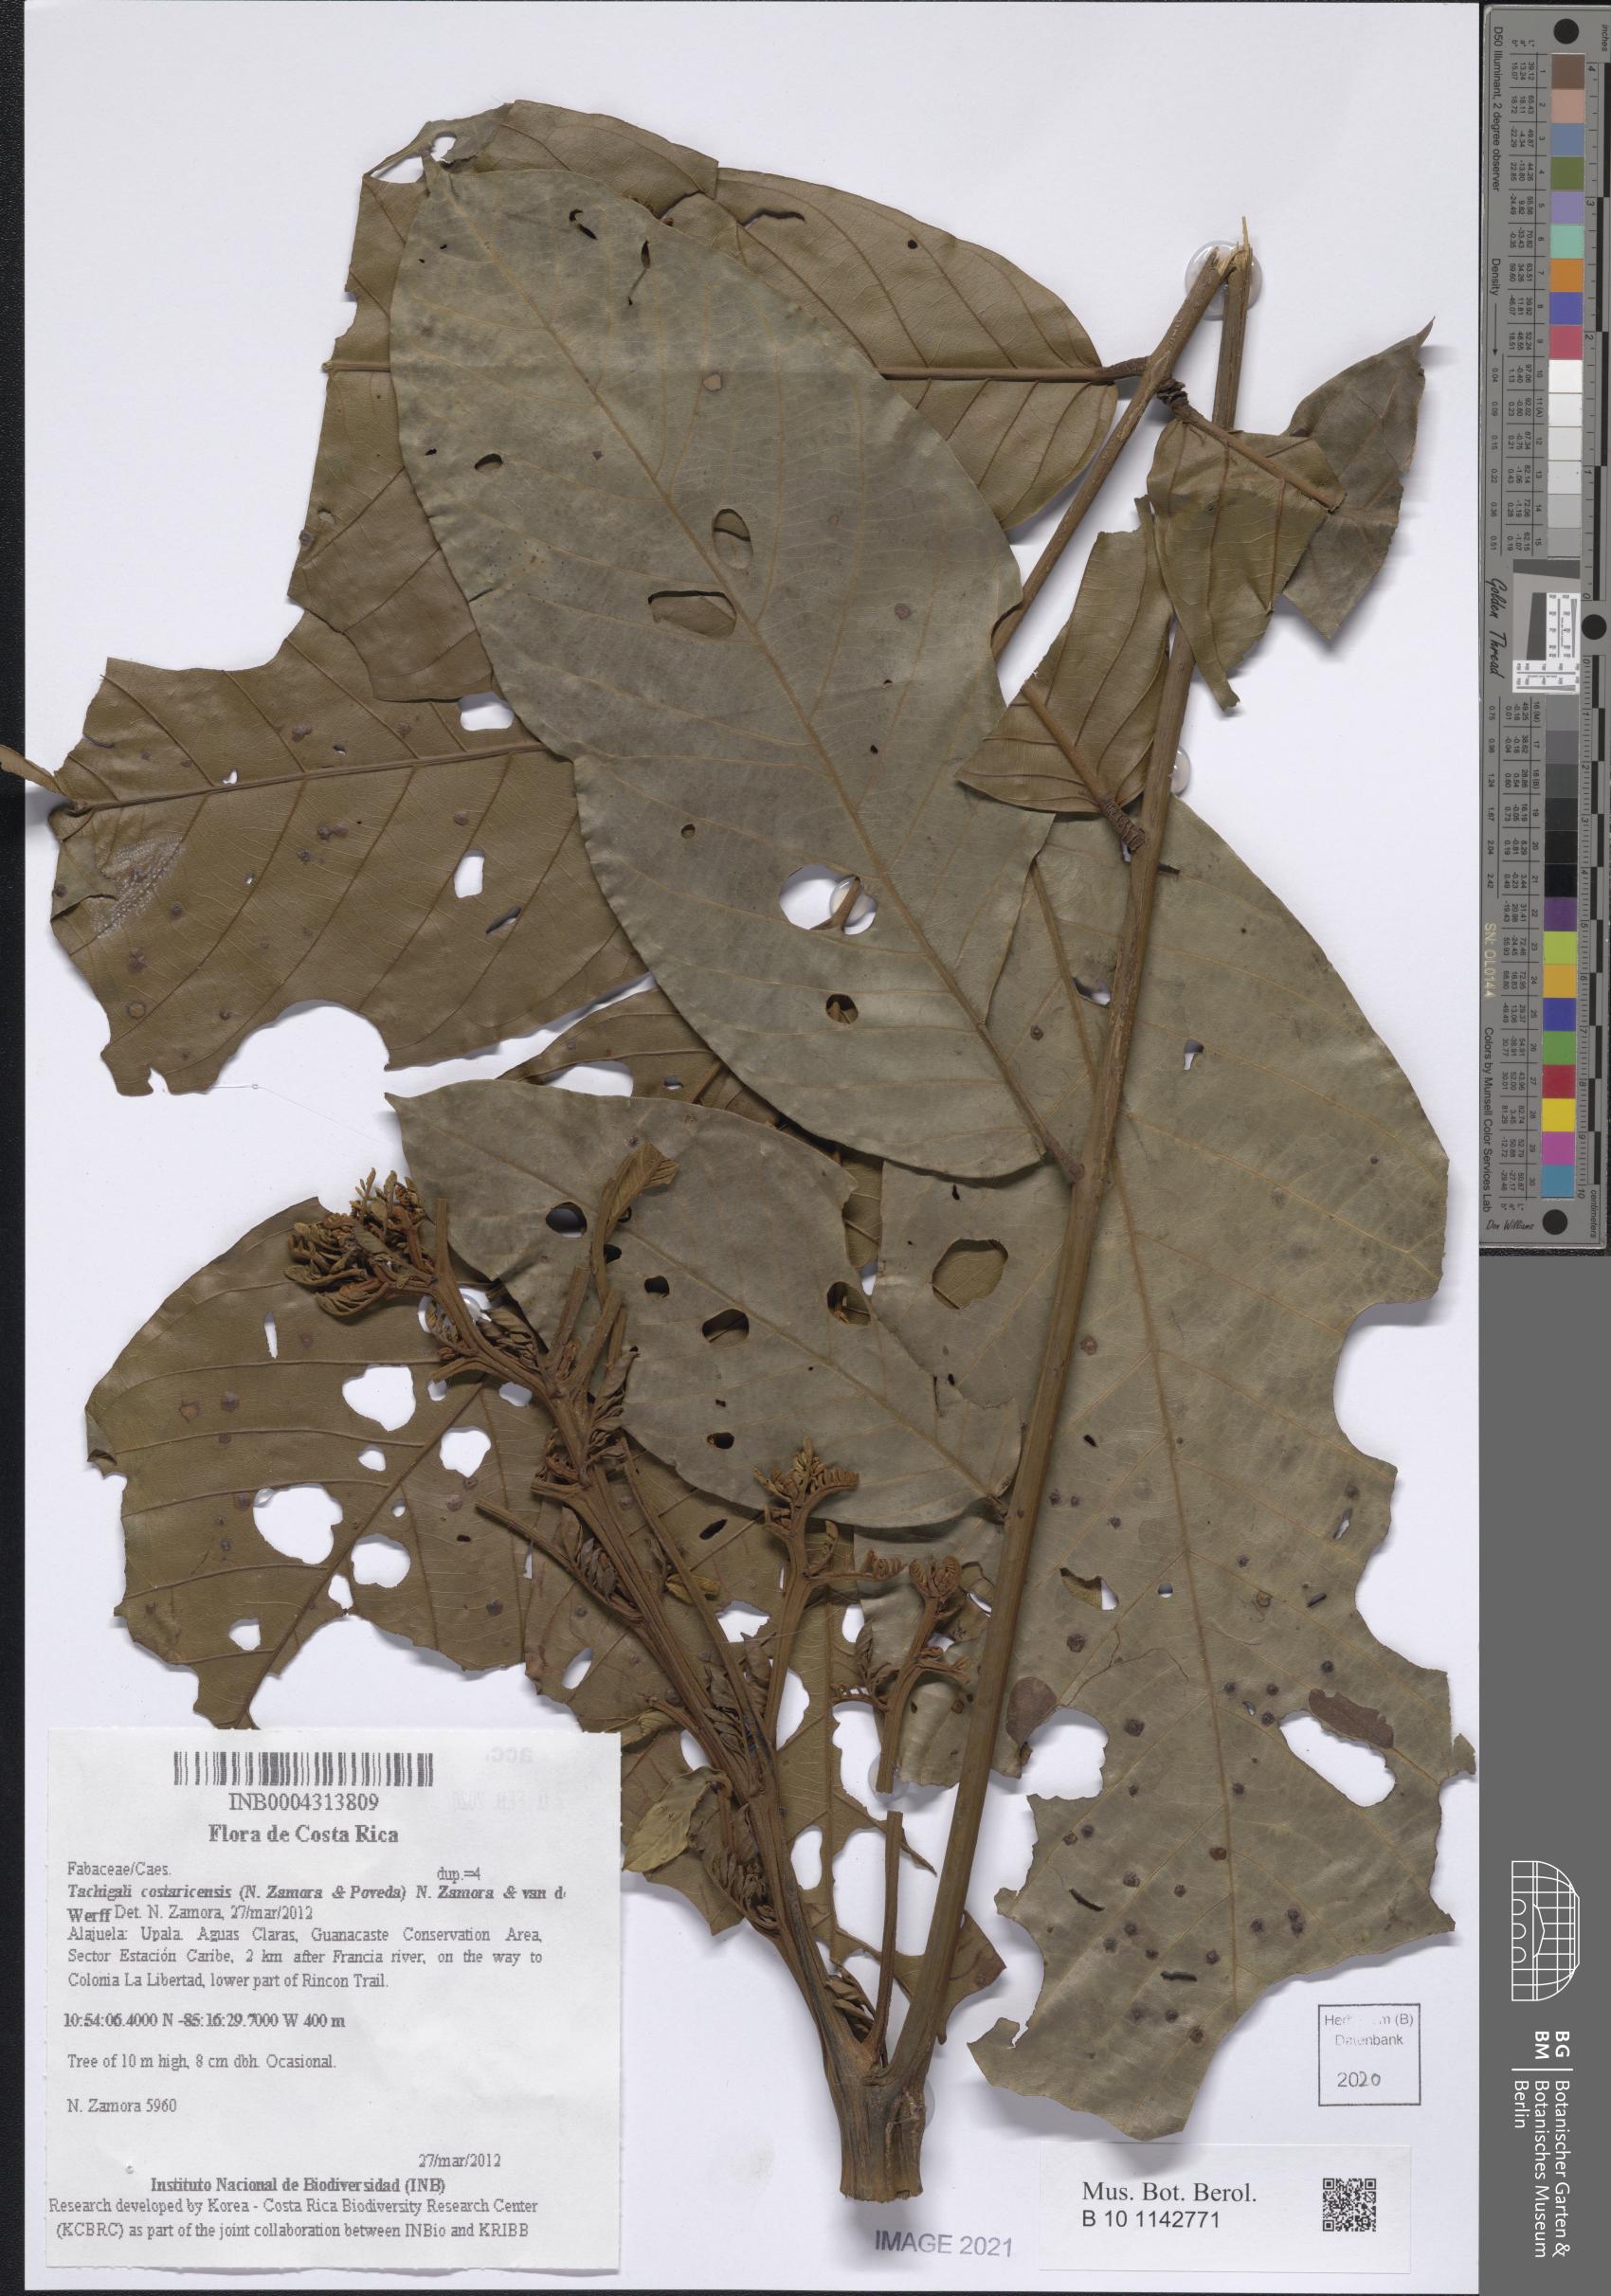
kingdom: Plantae
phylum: Tracheophyta
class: Magnoliopsida
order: Fabales
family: Fabaceae
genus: Tachigali
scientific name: Tachigali costaricensis
